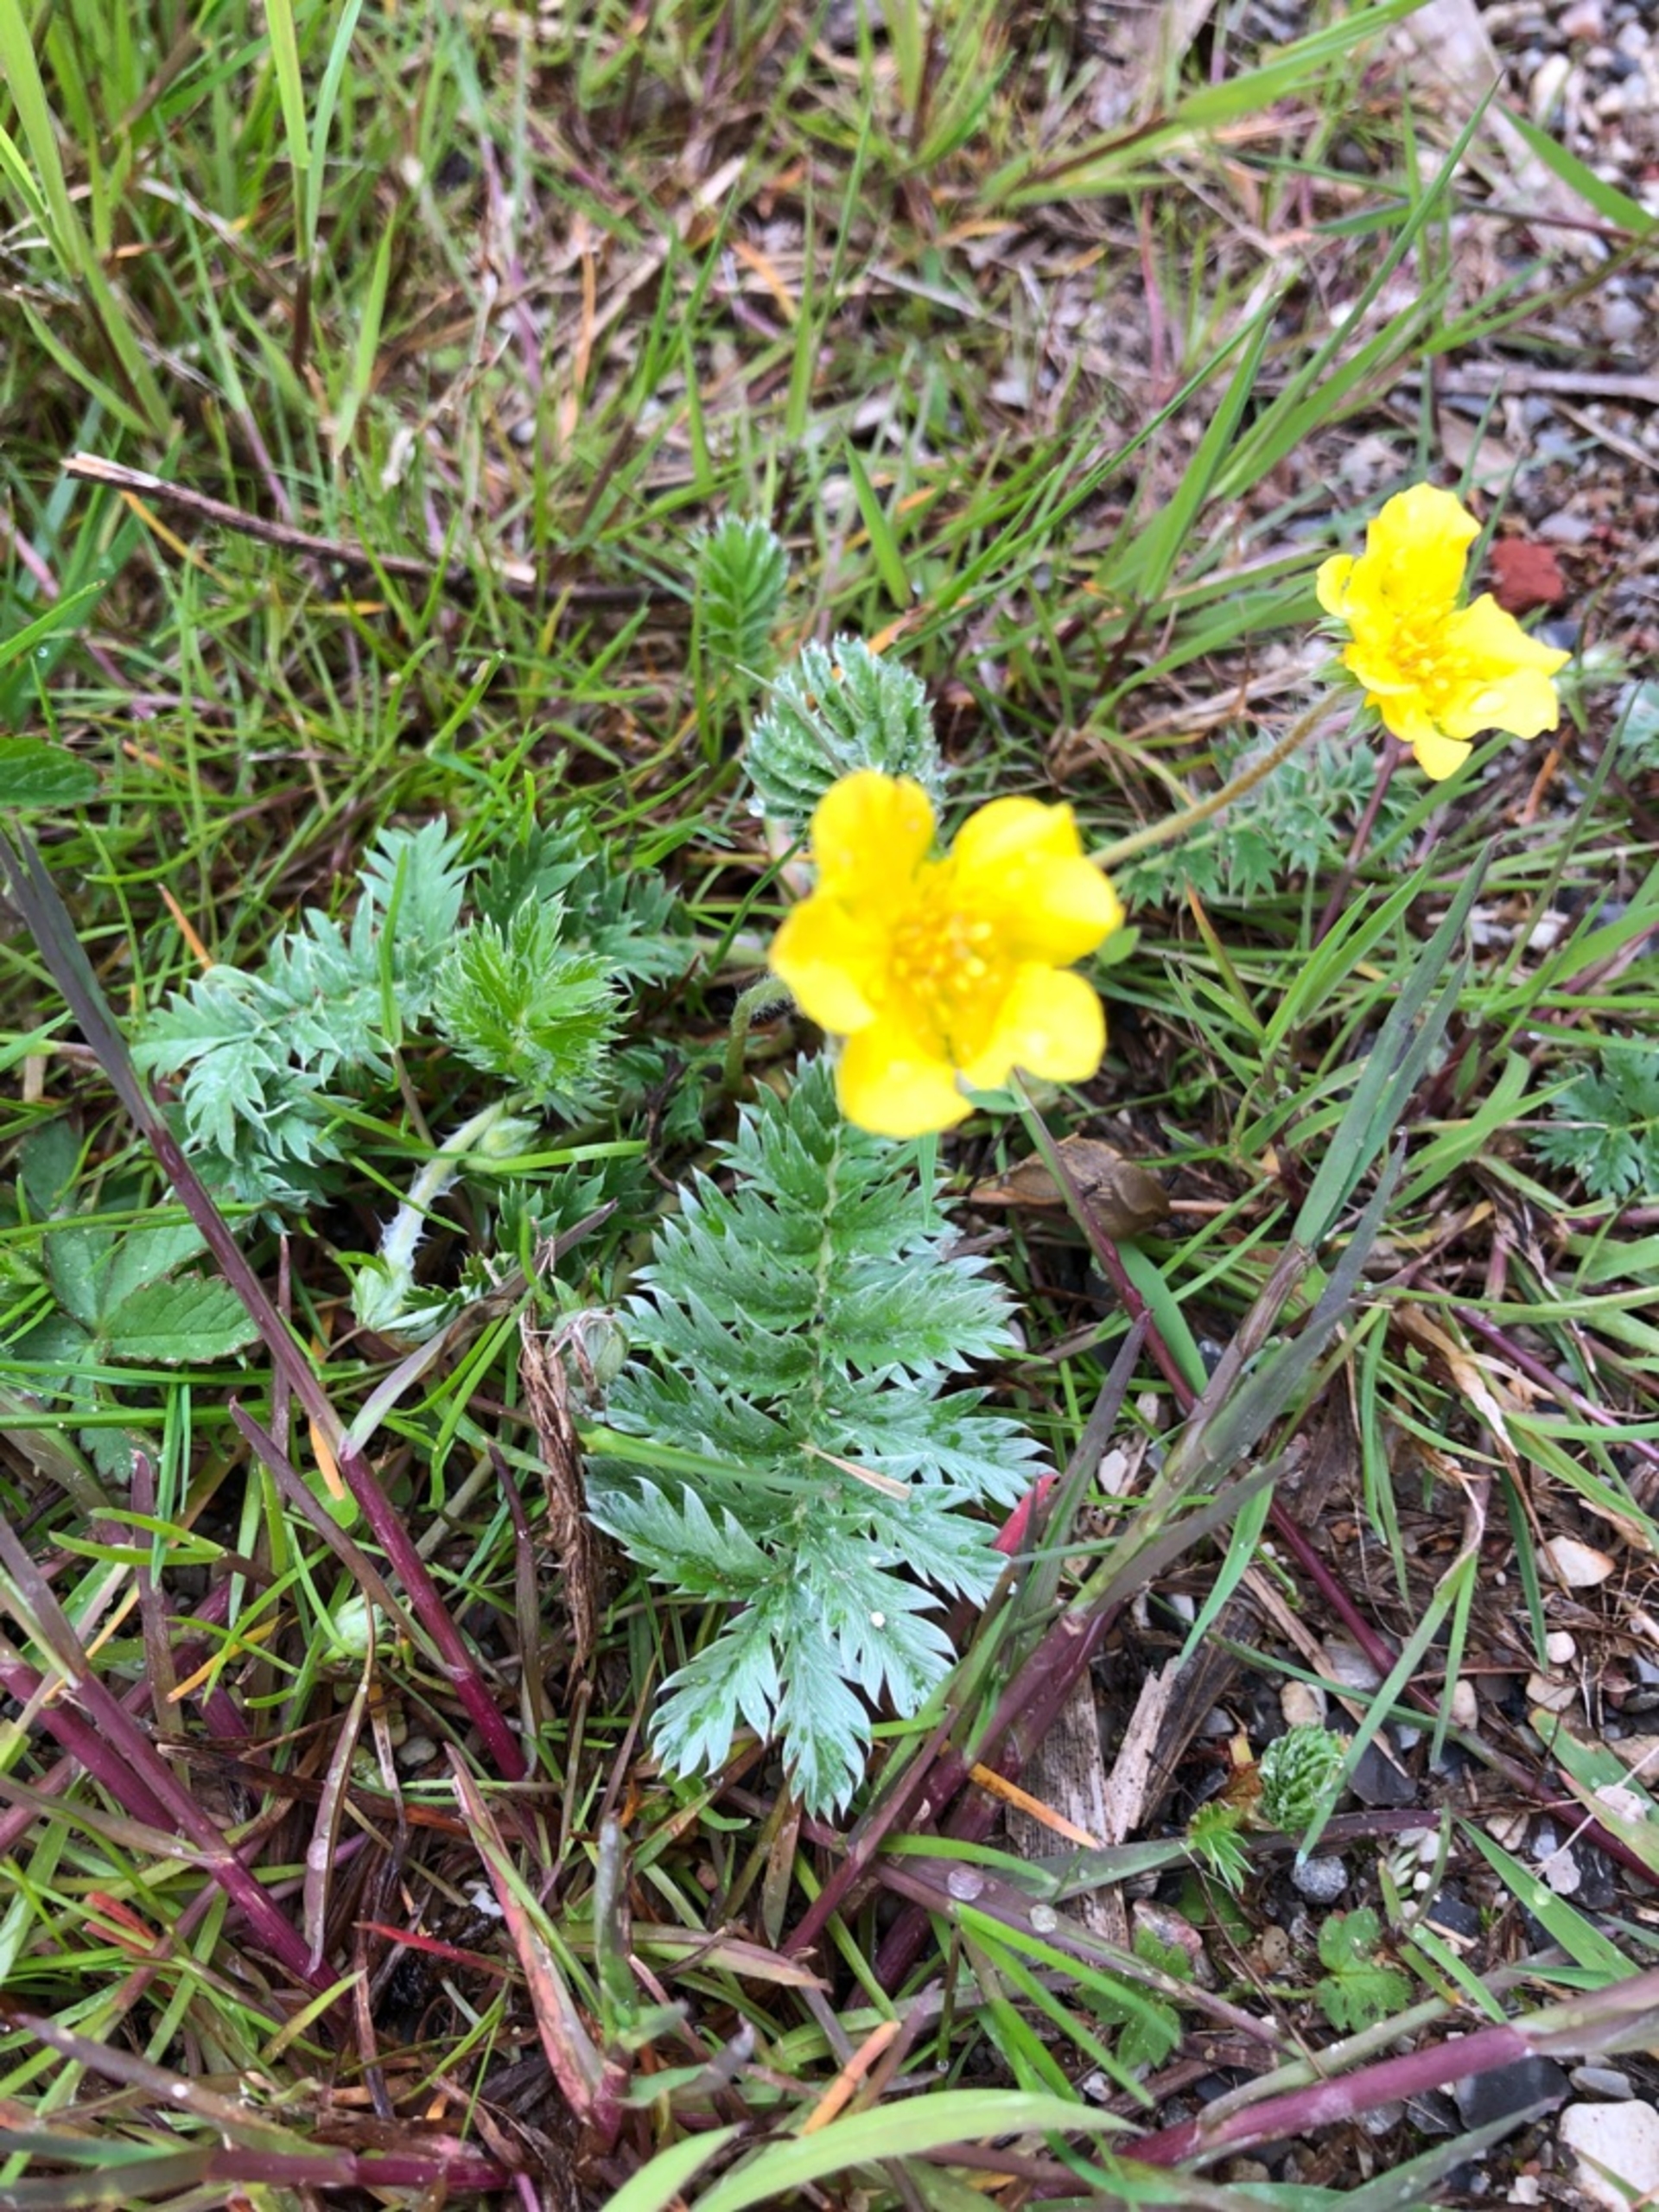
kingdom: Plantae
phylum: Tracheophyta
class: Magnoliopsida
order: Rosales
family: Rosaceae
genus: Argentina
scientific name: Argentina anserina
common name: Gåsepotentil
